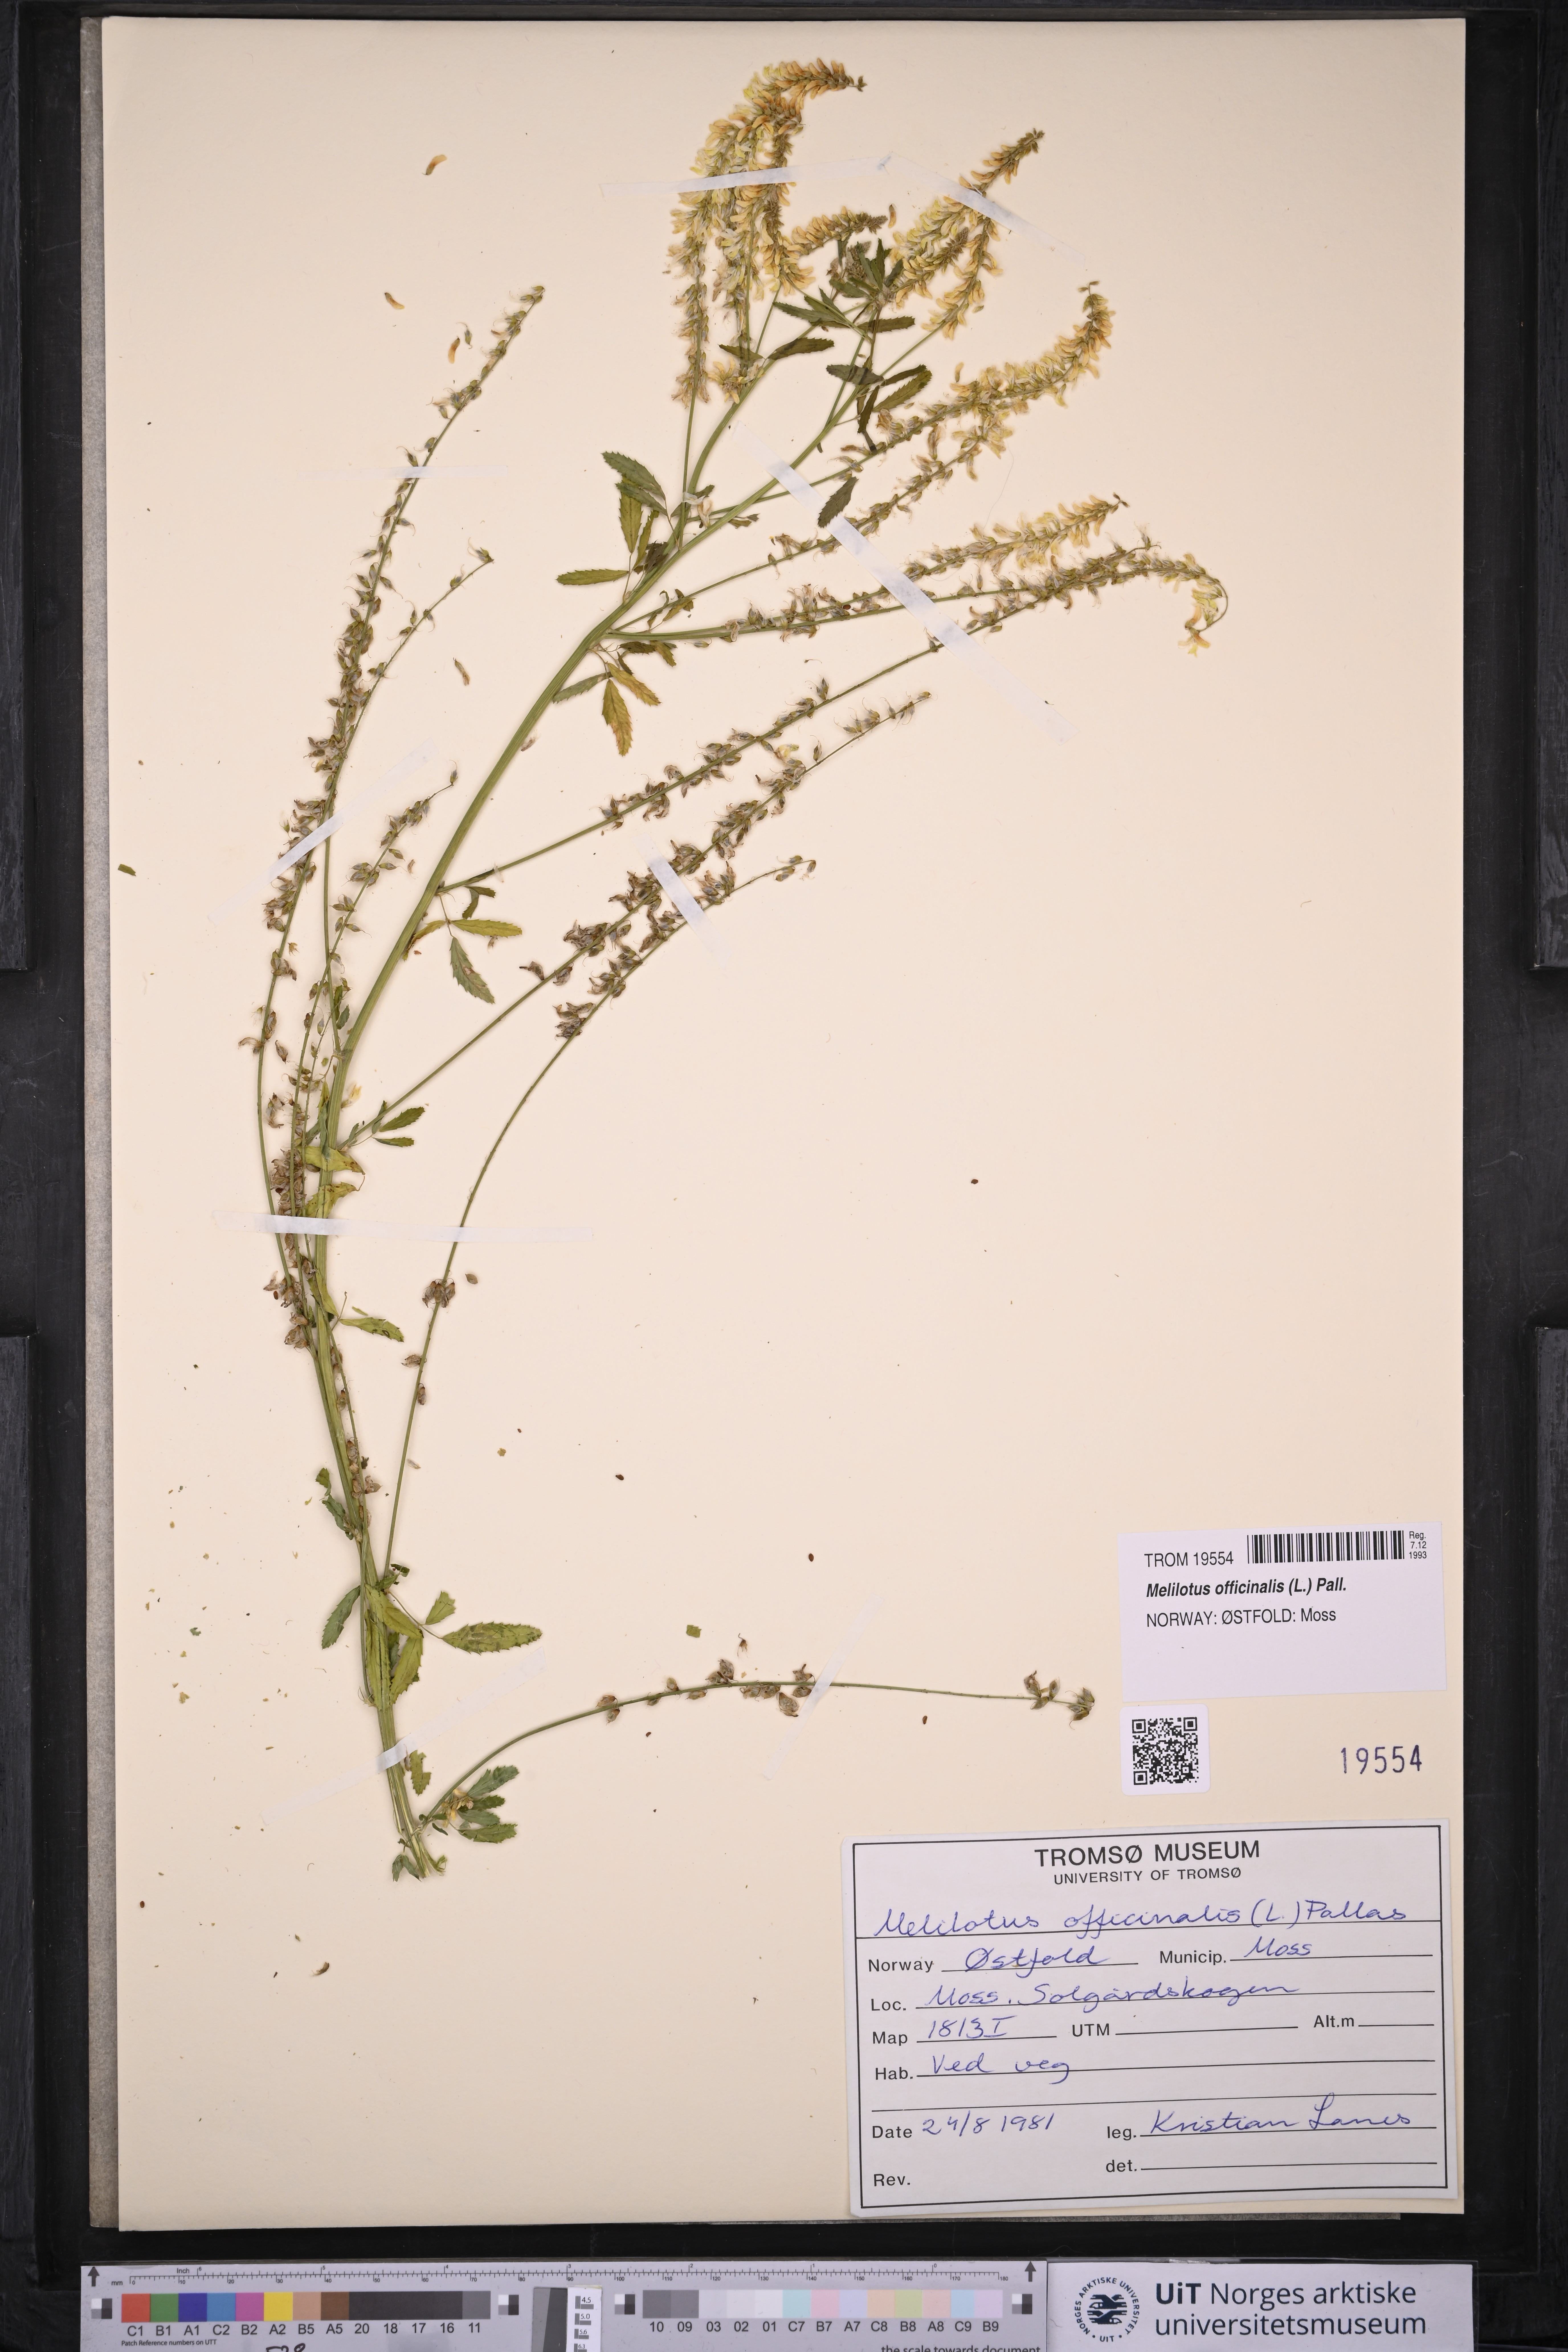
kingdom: Plantae
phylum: Tracheophyta
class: Magnoliopsida
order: Fabales
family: Fabaceae
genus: Melilotus
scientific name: Melilotus officinalis
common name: Sweetclover
